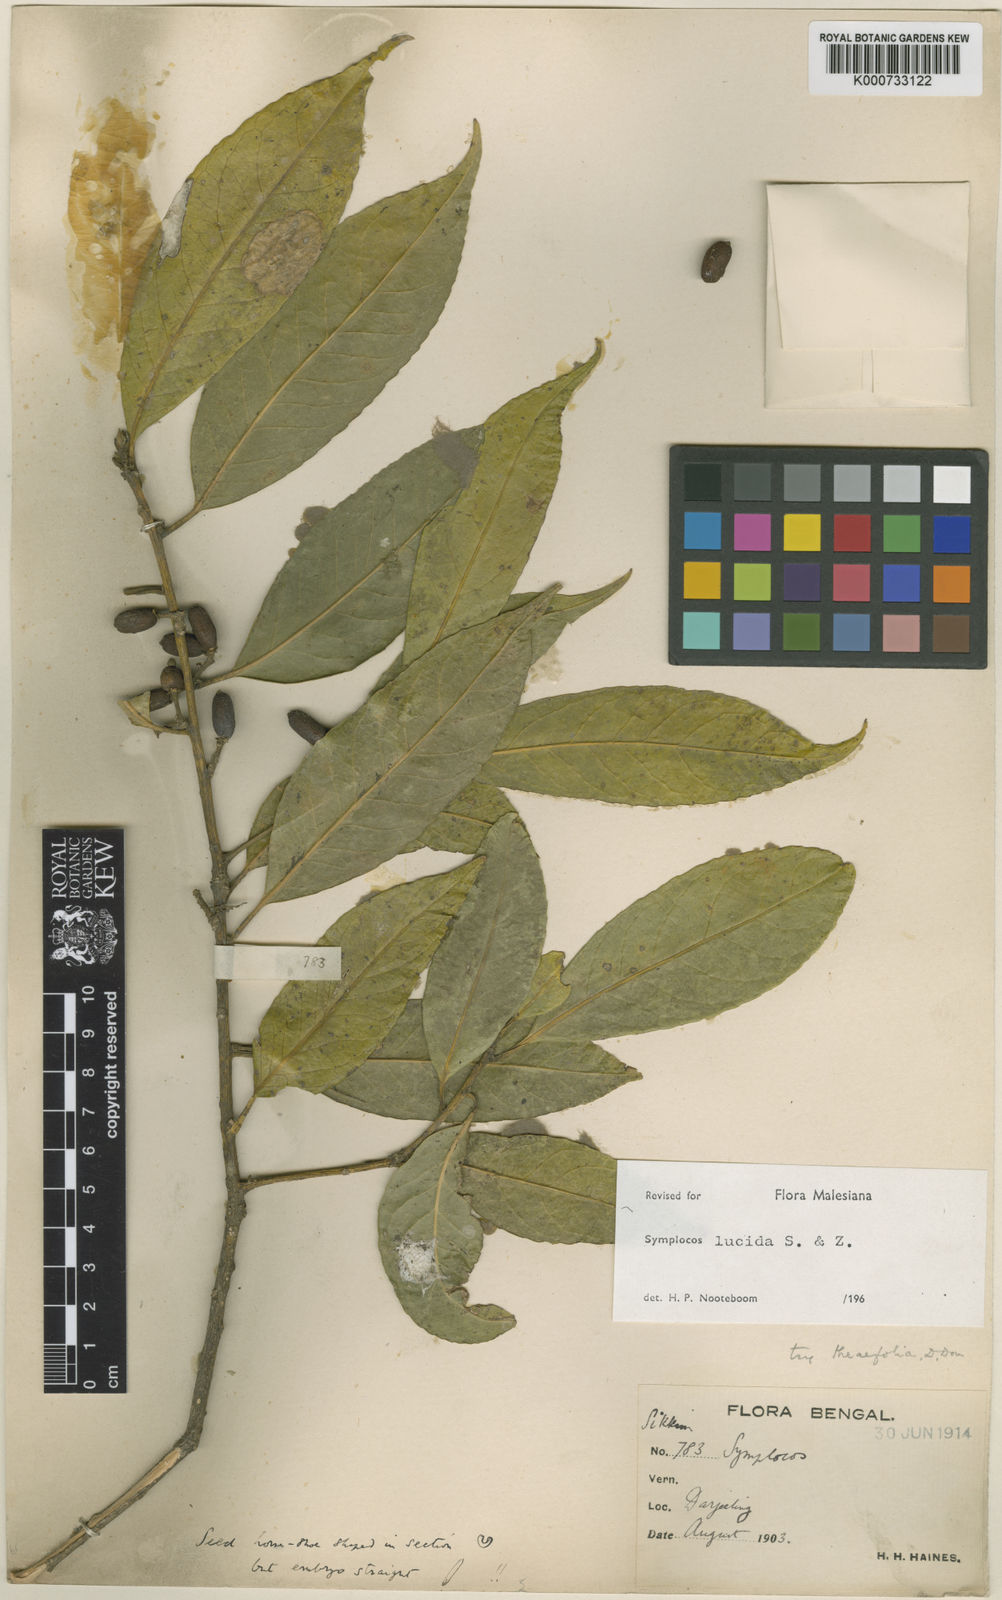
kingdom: Plantae
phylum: Tracheophyta
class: Magnoliopsida
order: Ericales
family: Symplocaceae
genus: Symplocos
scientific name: Symplocos
